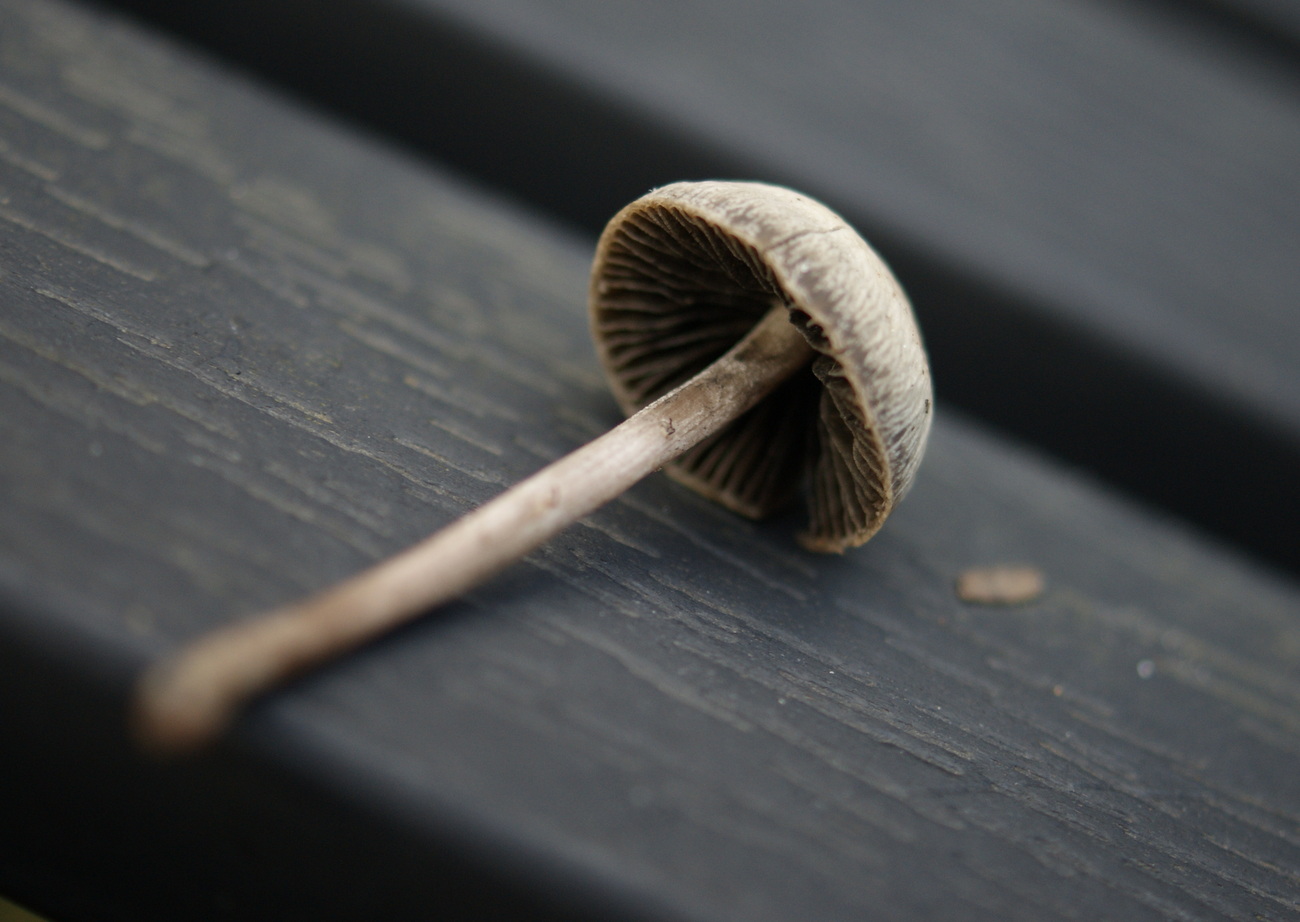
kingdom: Fungi
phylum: Basidiomycota
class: Agaricomycetes
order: Agaricales
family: Bolbitiaceae
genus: Panaeolus
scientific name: Panaeolus olivaceus
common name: lysstokket glanshat
